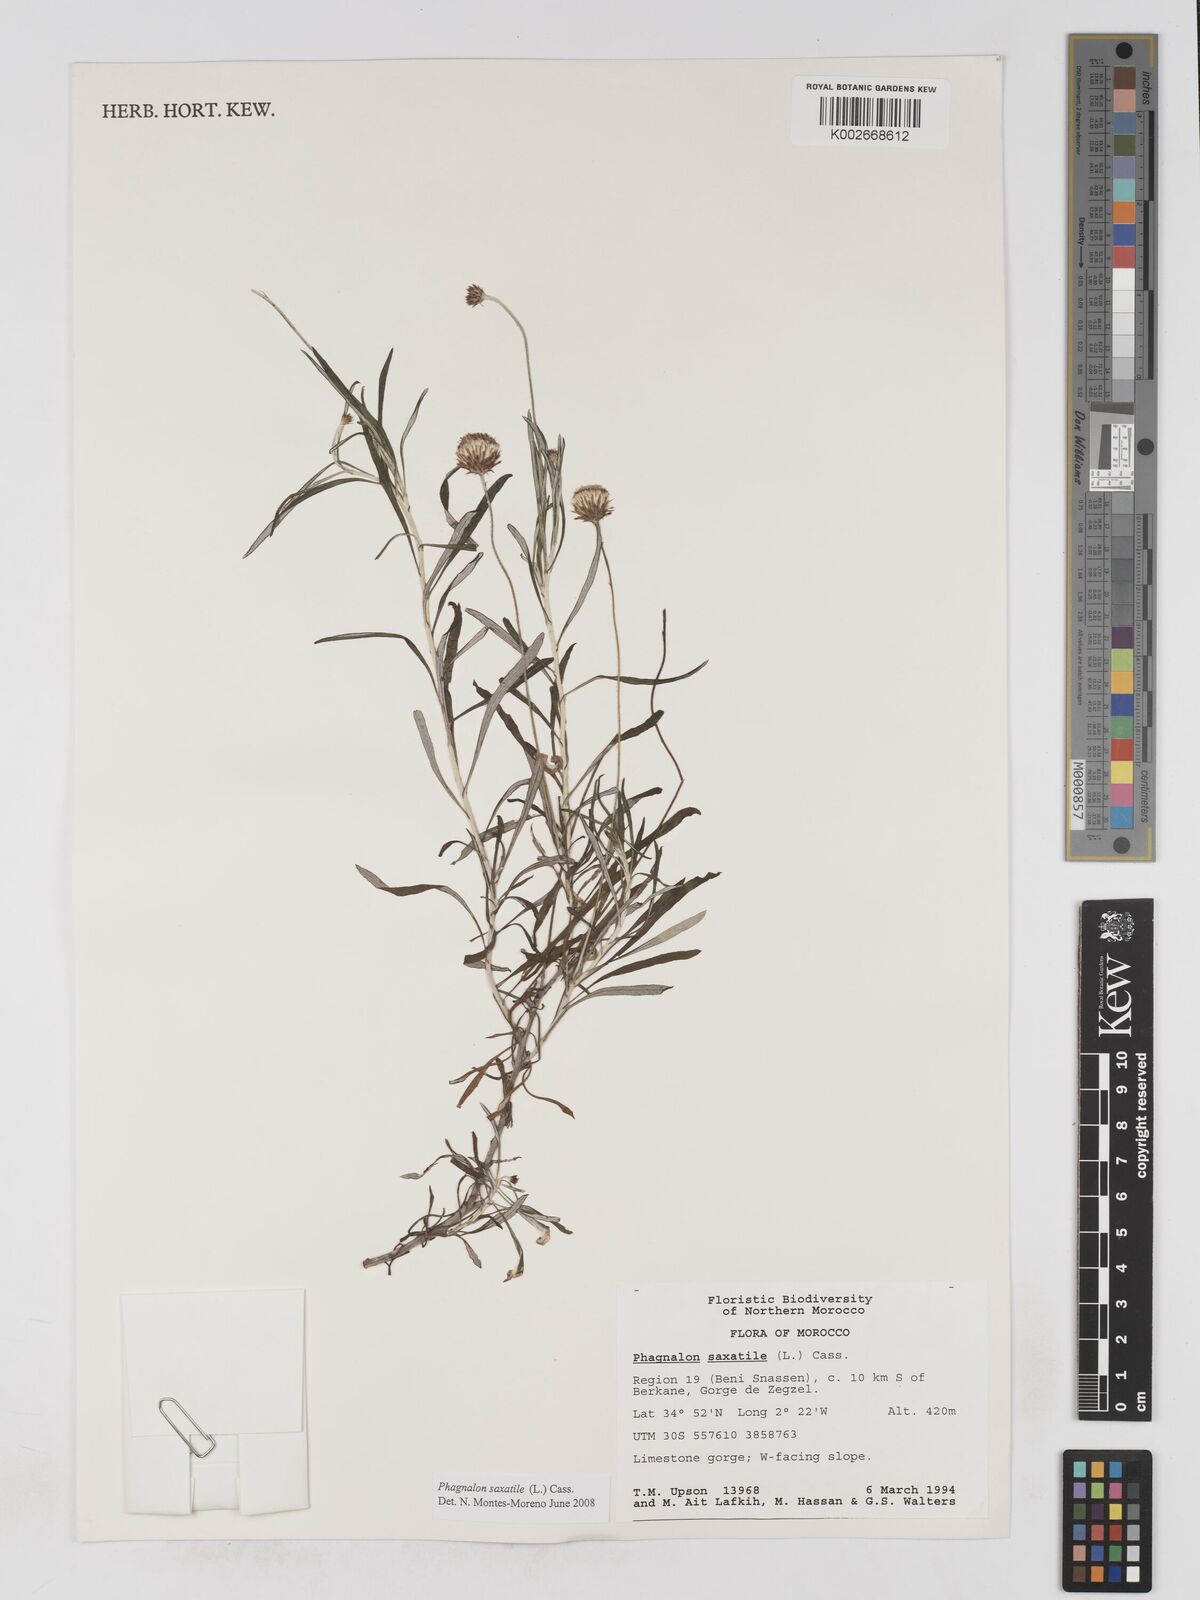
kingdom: Plantae
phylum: Tracheophyta
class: Magnoliopsida
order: Asterales
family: Asteraceae
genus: Phagnalon
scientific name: Phagnalon saxatile
